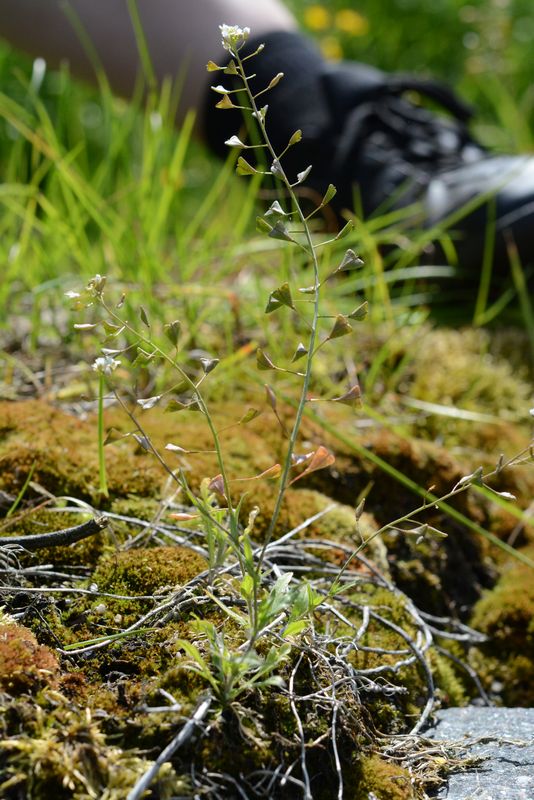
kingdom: Plantae
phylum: Tracheophyta
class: Magnoliopsida
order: Brassicales
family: Brassicaceae
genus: Capsella
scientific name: Capsella bursa-pastoris
